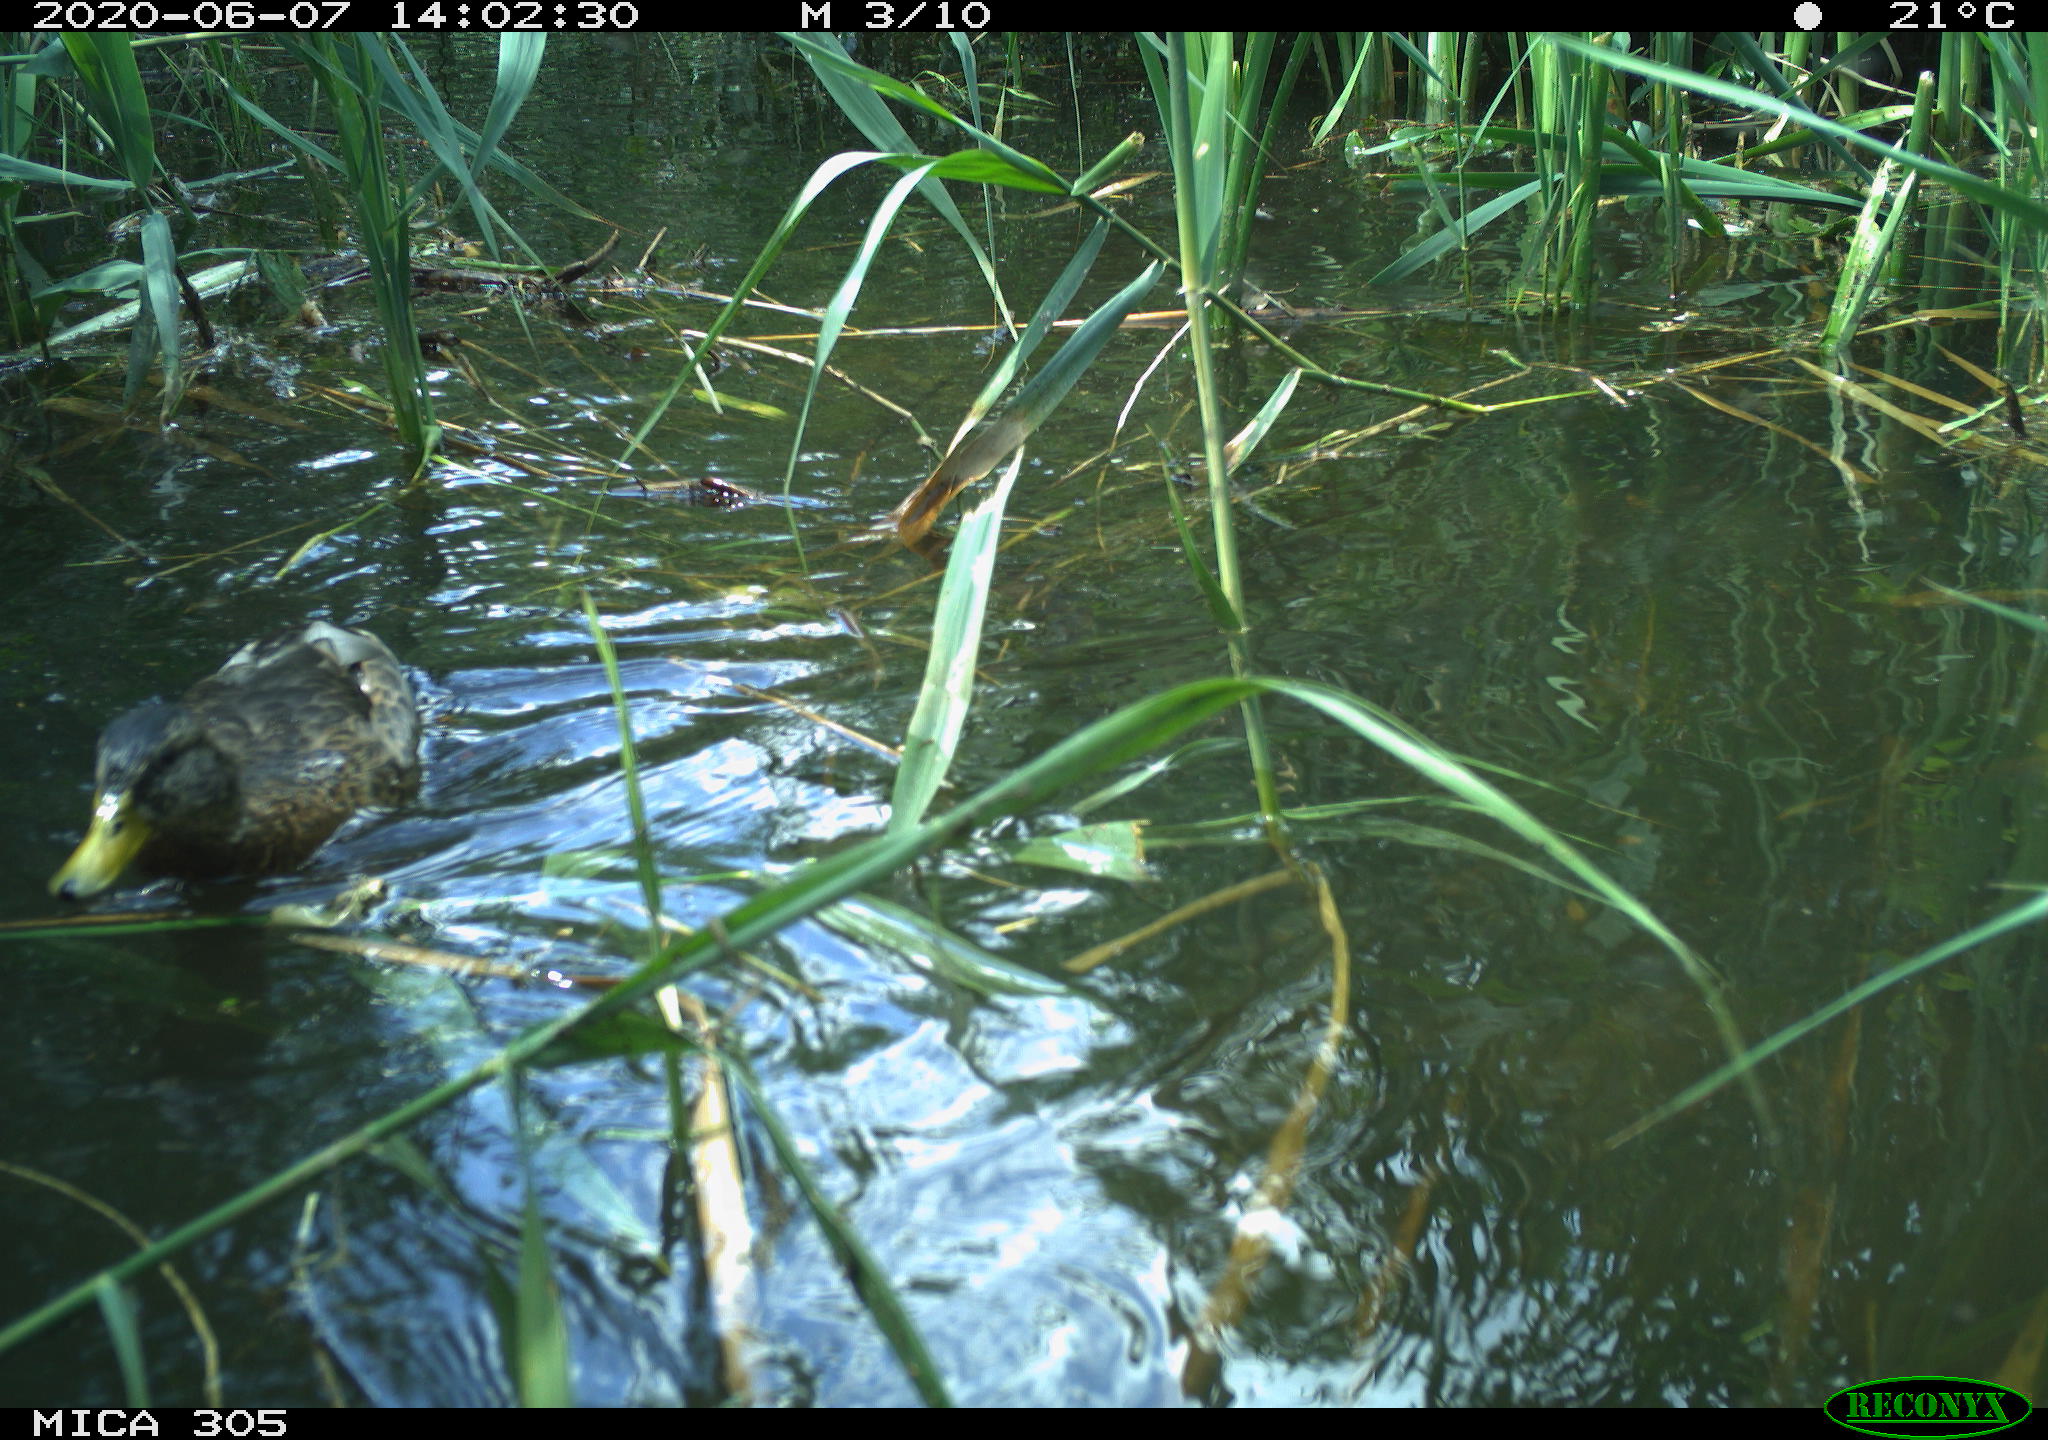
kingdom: Animalia
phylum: Chordata
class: Aves
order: Anseriformes
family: Anatidae
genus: Anas
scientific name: Anas platyrhynchos
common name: Mallard
